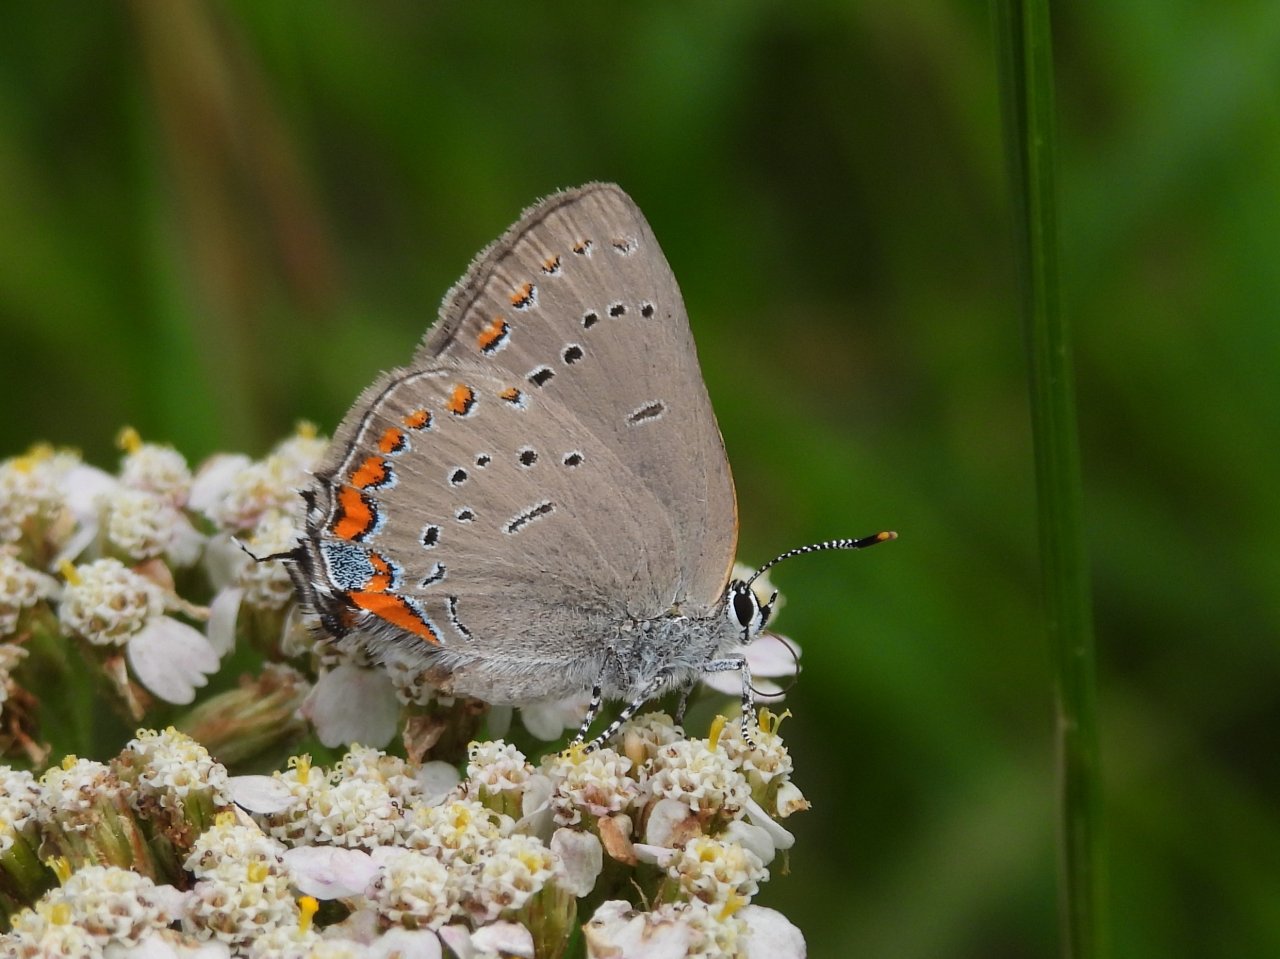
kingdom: Animalia
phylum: Arthropoda
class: Insecta
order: Lepidoptera
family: Lycaenidae
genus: Strymon
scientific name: Strymon acadica
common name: Acadian Hairstreak
